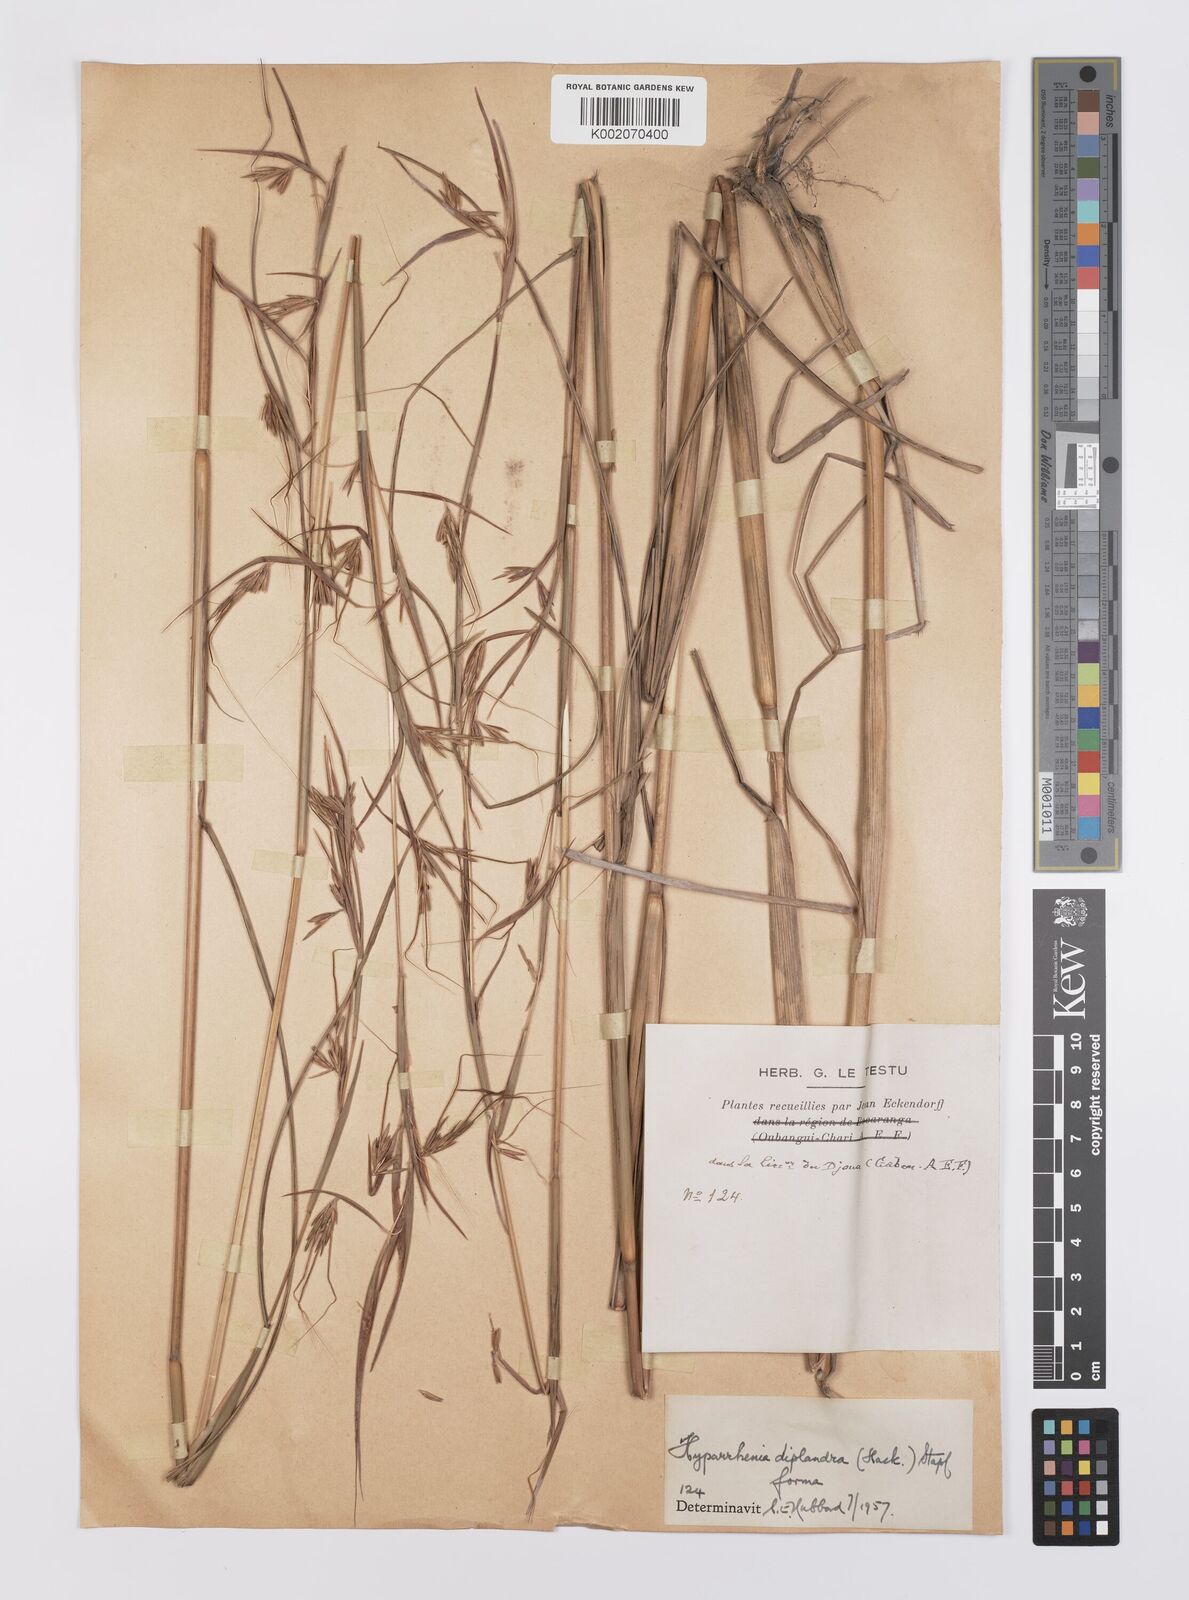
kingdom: Plantae
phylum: Tracheophyta
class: Liliopsida
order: Poales
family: Poaceae
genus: Hyparrhenia
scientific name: Hyparrhenia diplandra
